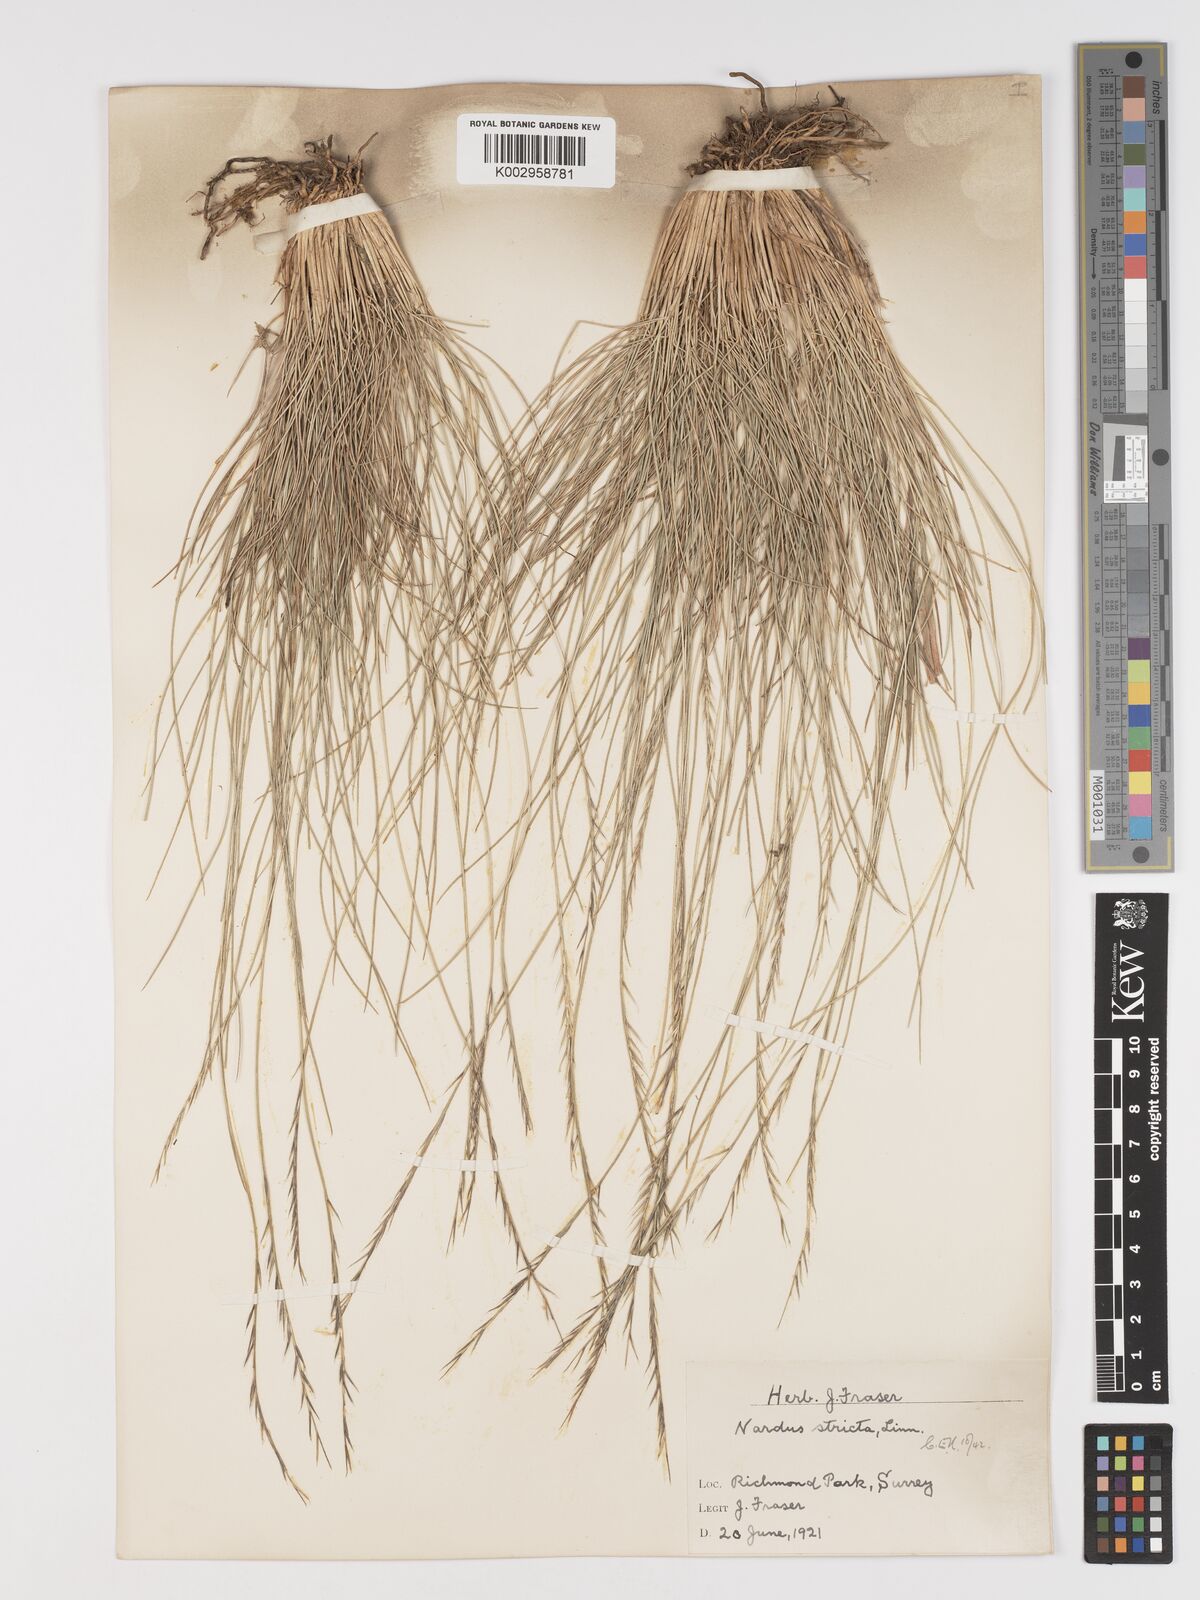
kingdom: Plantae
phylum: Tracheophyta
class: Liliopsida
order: Poales
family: Poaceae
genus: Nardus
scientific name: Nardus stricta
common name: Mat-grass
